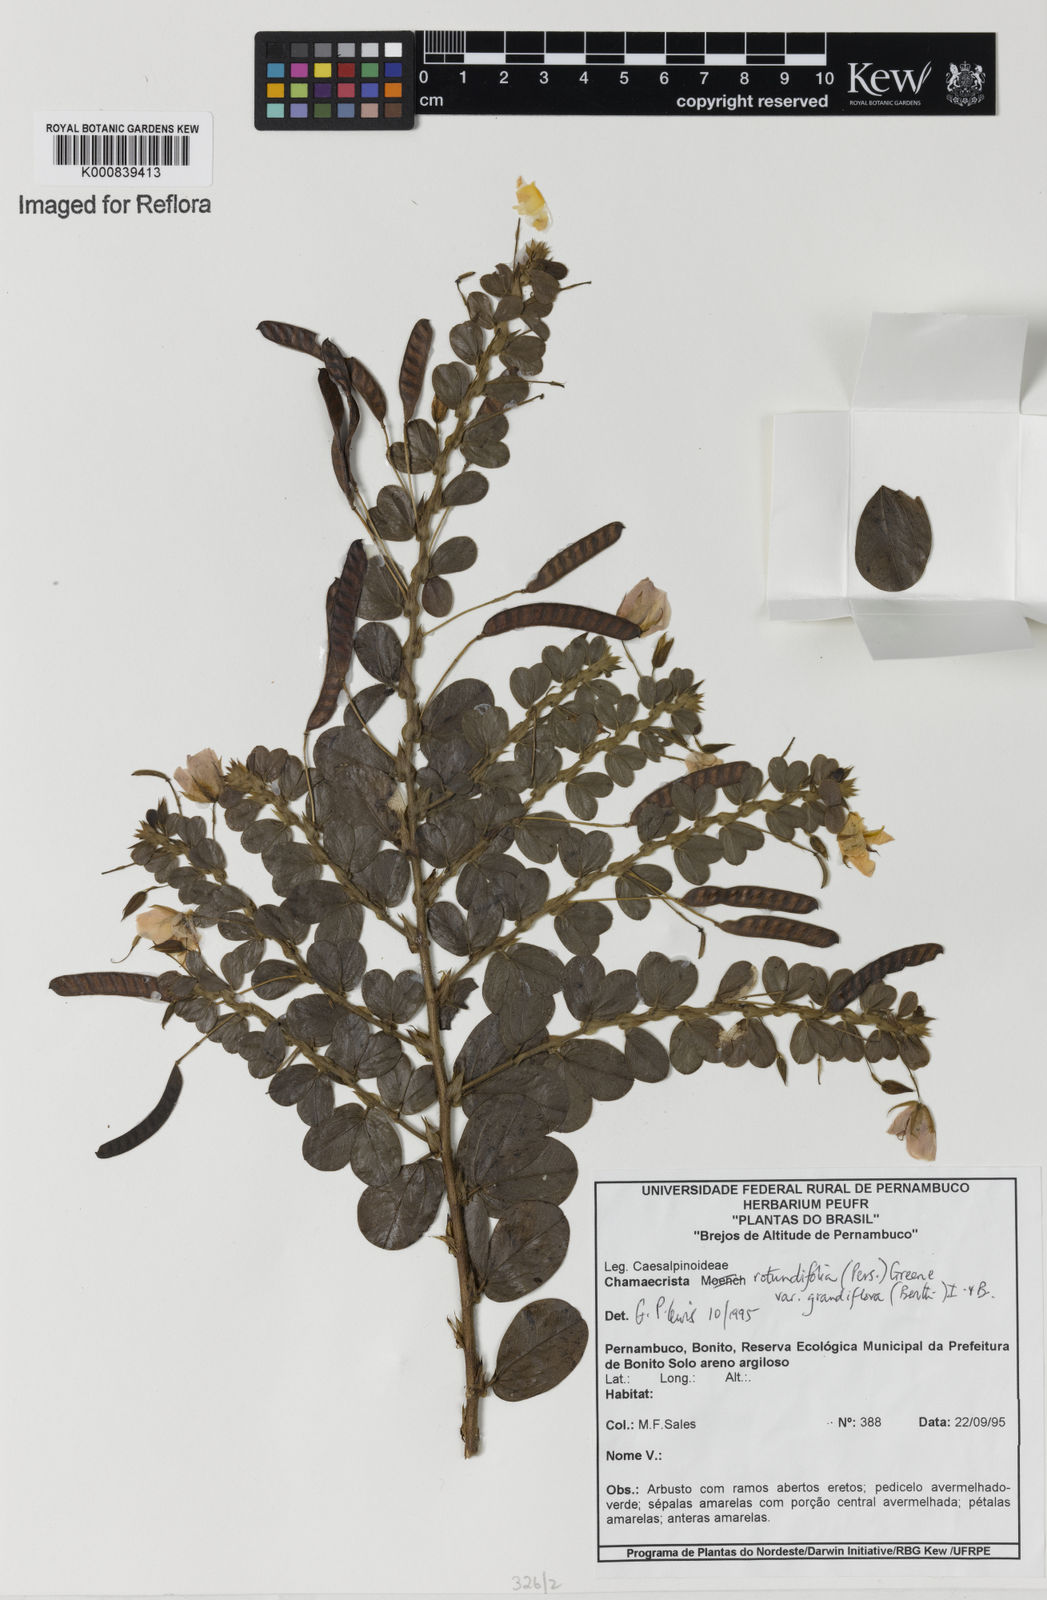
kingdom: Plantae
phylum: Tracheophyta
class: Magnoliopsida
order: Fabales
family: Fabaceae
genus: Chamaecrista
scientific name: Chamaecrista rotundifolia
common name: Round-leaf cassia
